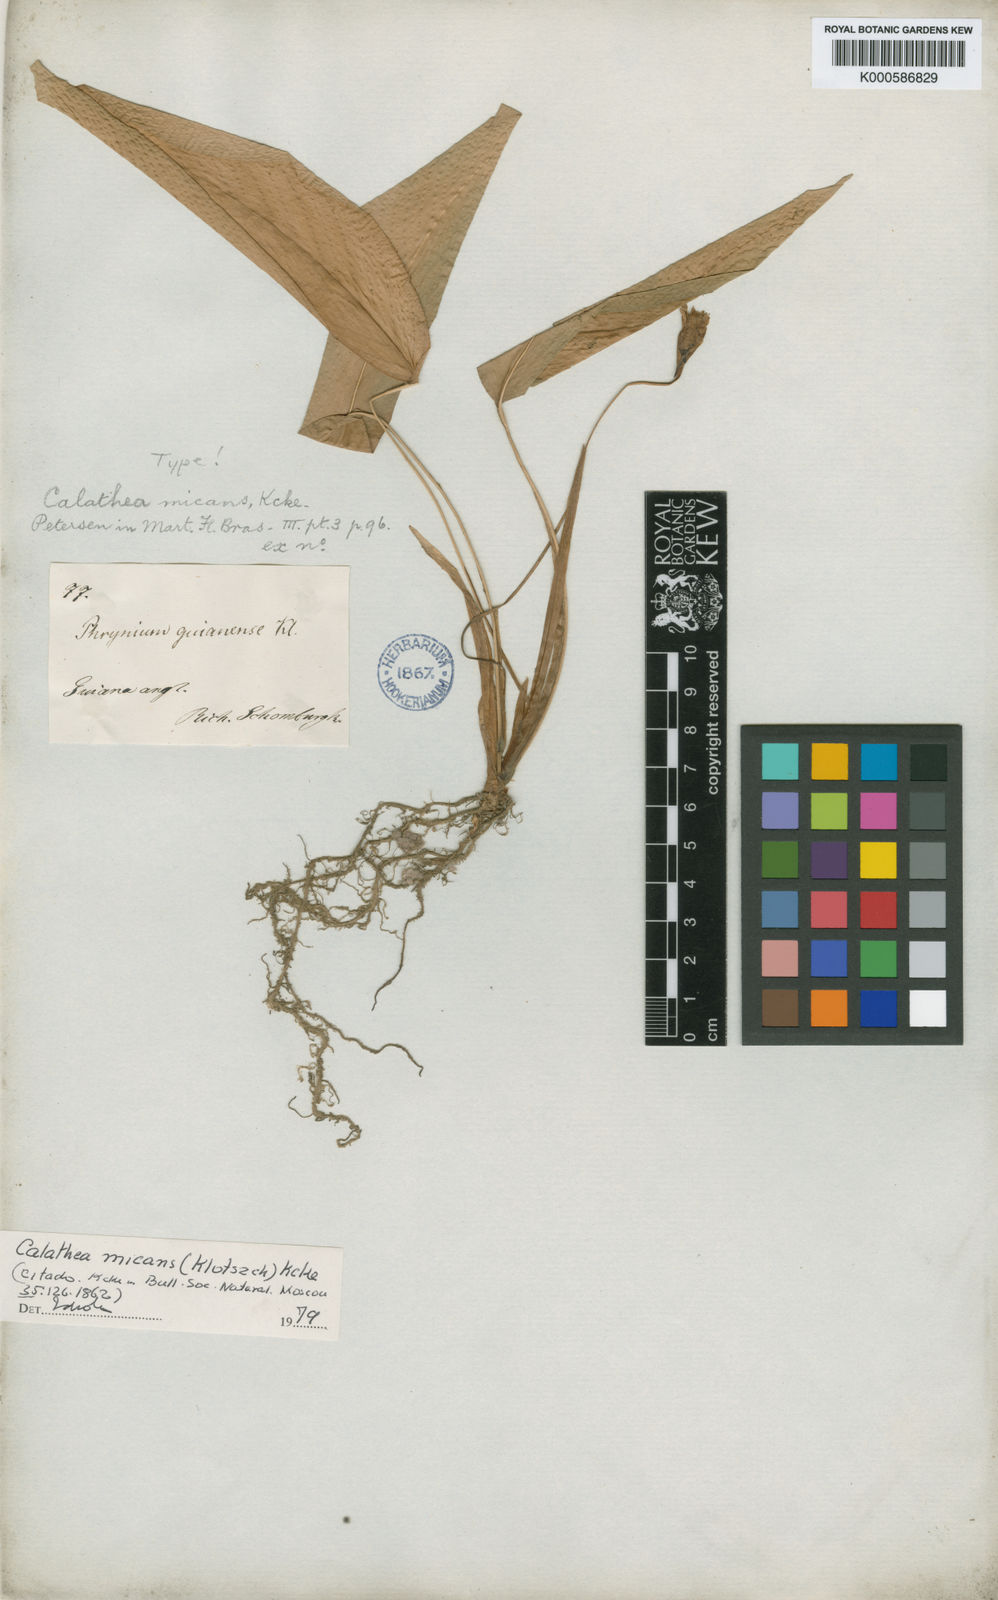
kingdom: Plantae
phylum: Tracheophyta
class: Liliopsida
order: Zingiberales
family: Marantaceae
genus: Calathea
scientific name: Calathea
